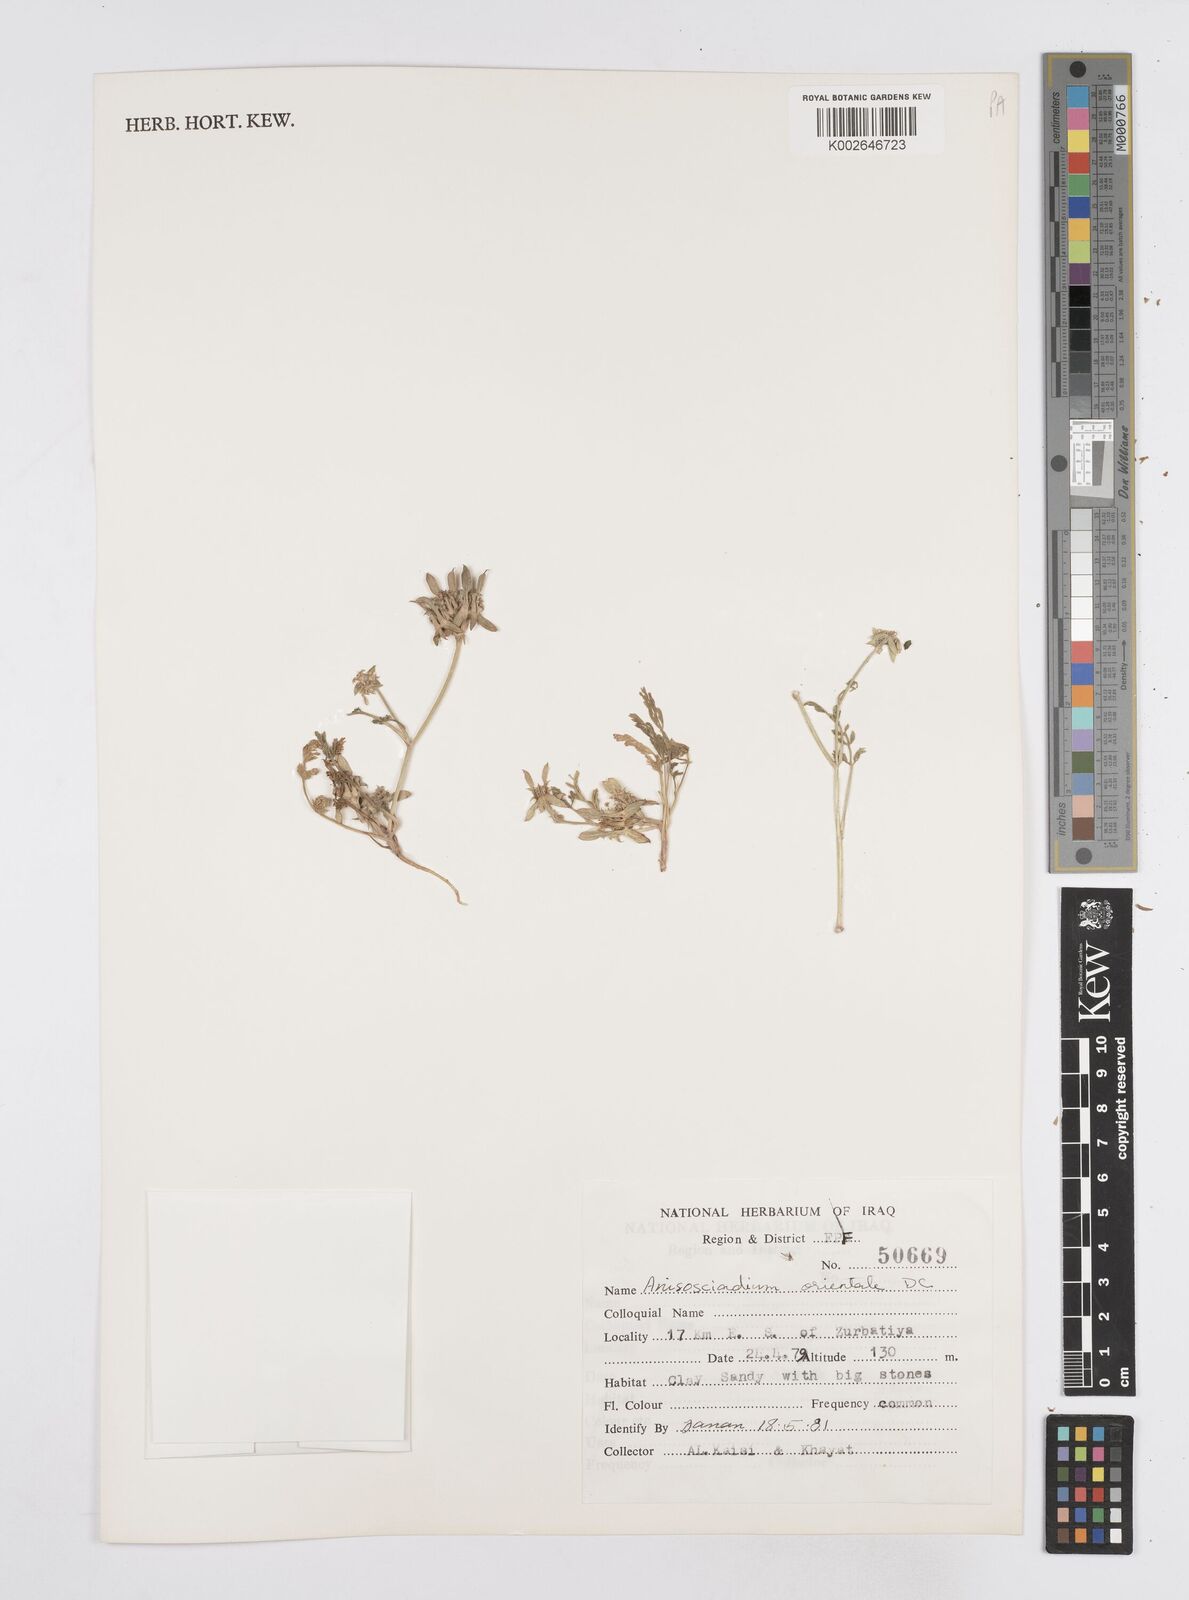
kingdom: Plantae
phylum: Tracheophyta
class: Magnoliopsida
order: Apiales
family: Apiaceae
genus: Anisosciadium
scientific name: Anisosciadium orientale
